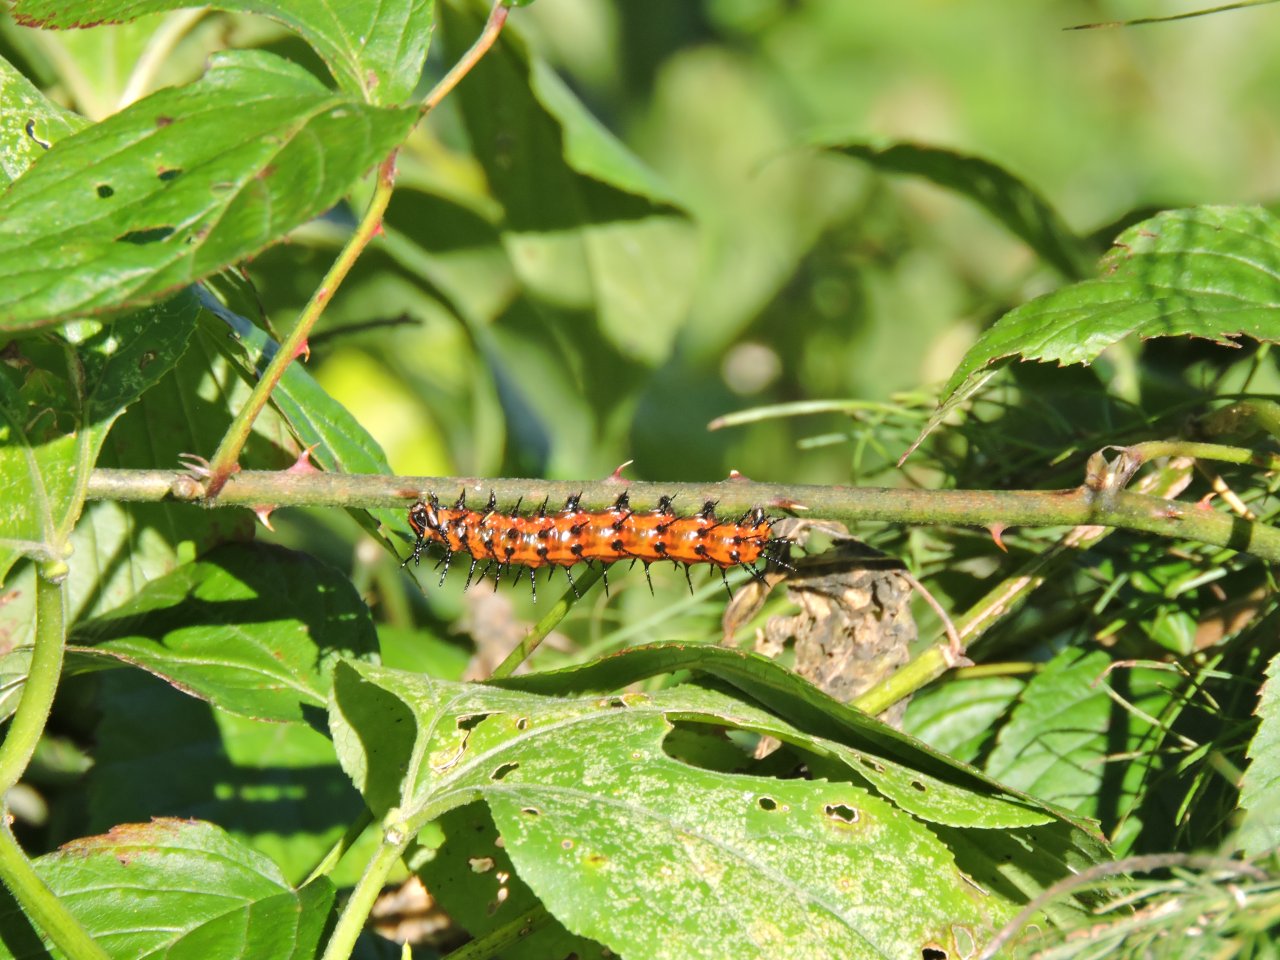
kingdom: Animalia
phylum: Arthropoda
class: Insecta
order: Lepidoptera
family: Nymphalidae
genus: Dione
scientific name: Dione vanillae
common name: Gulf Fritillary
